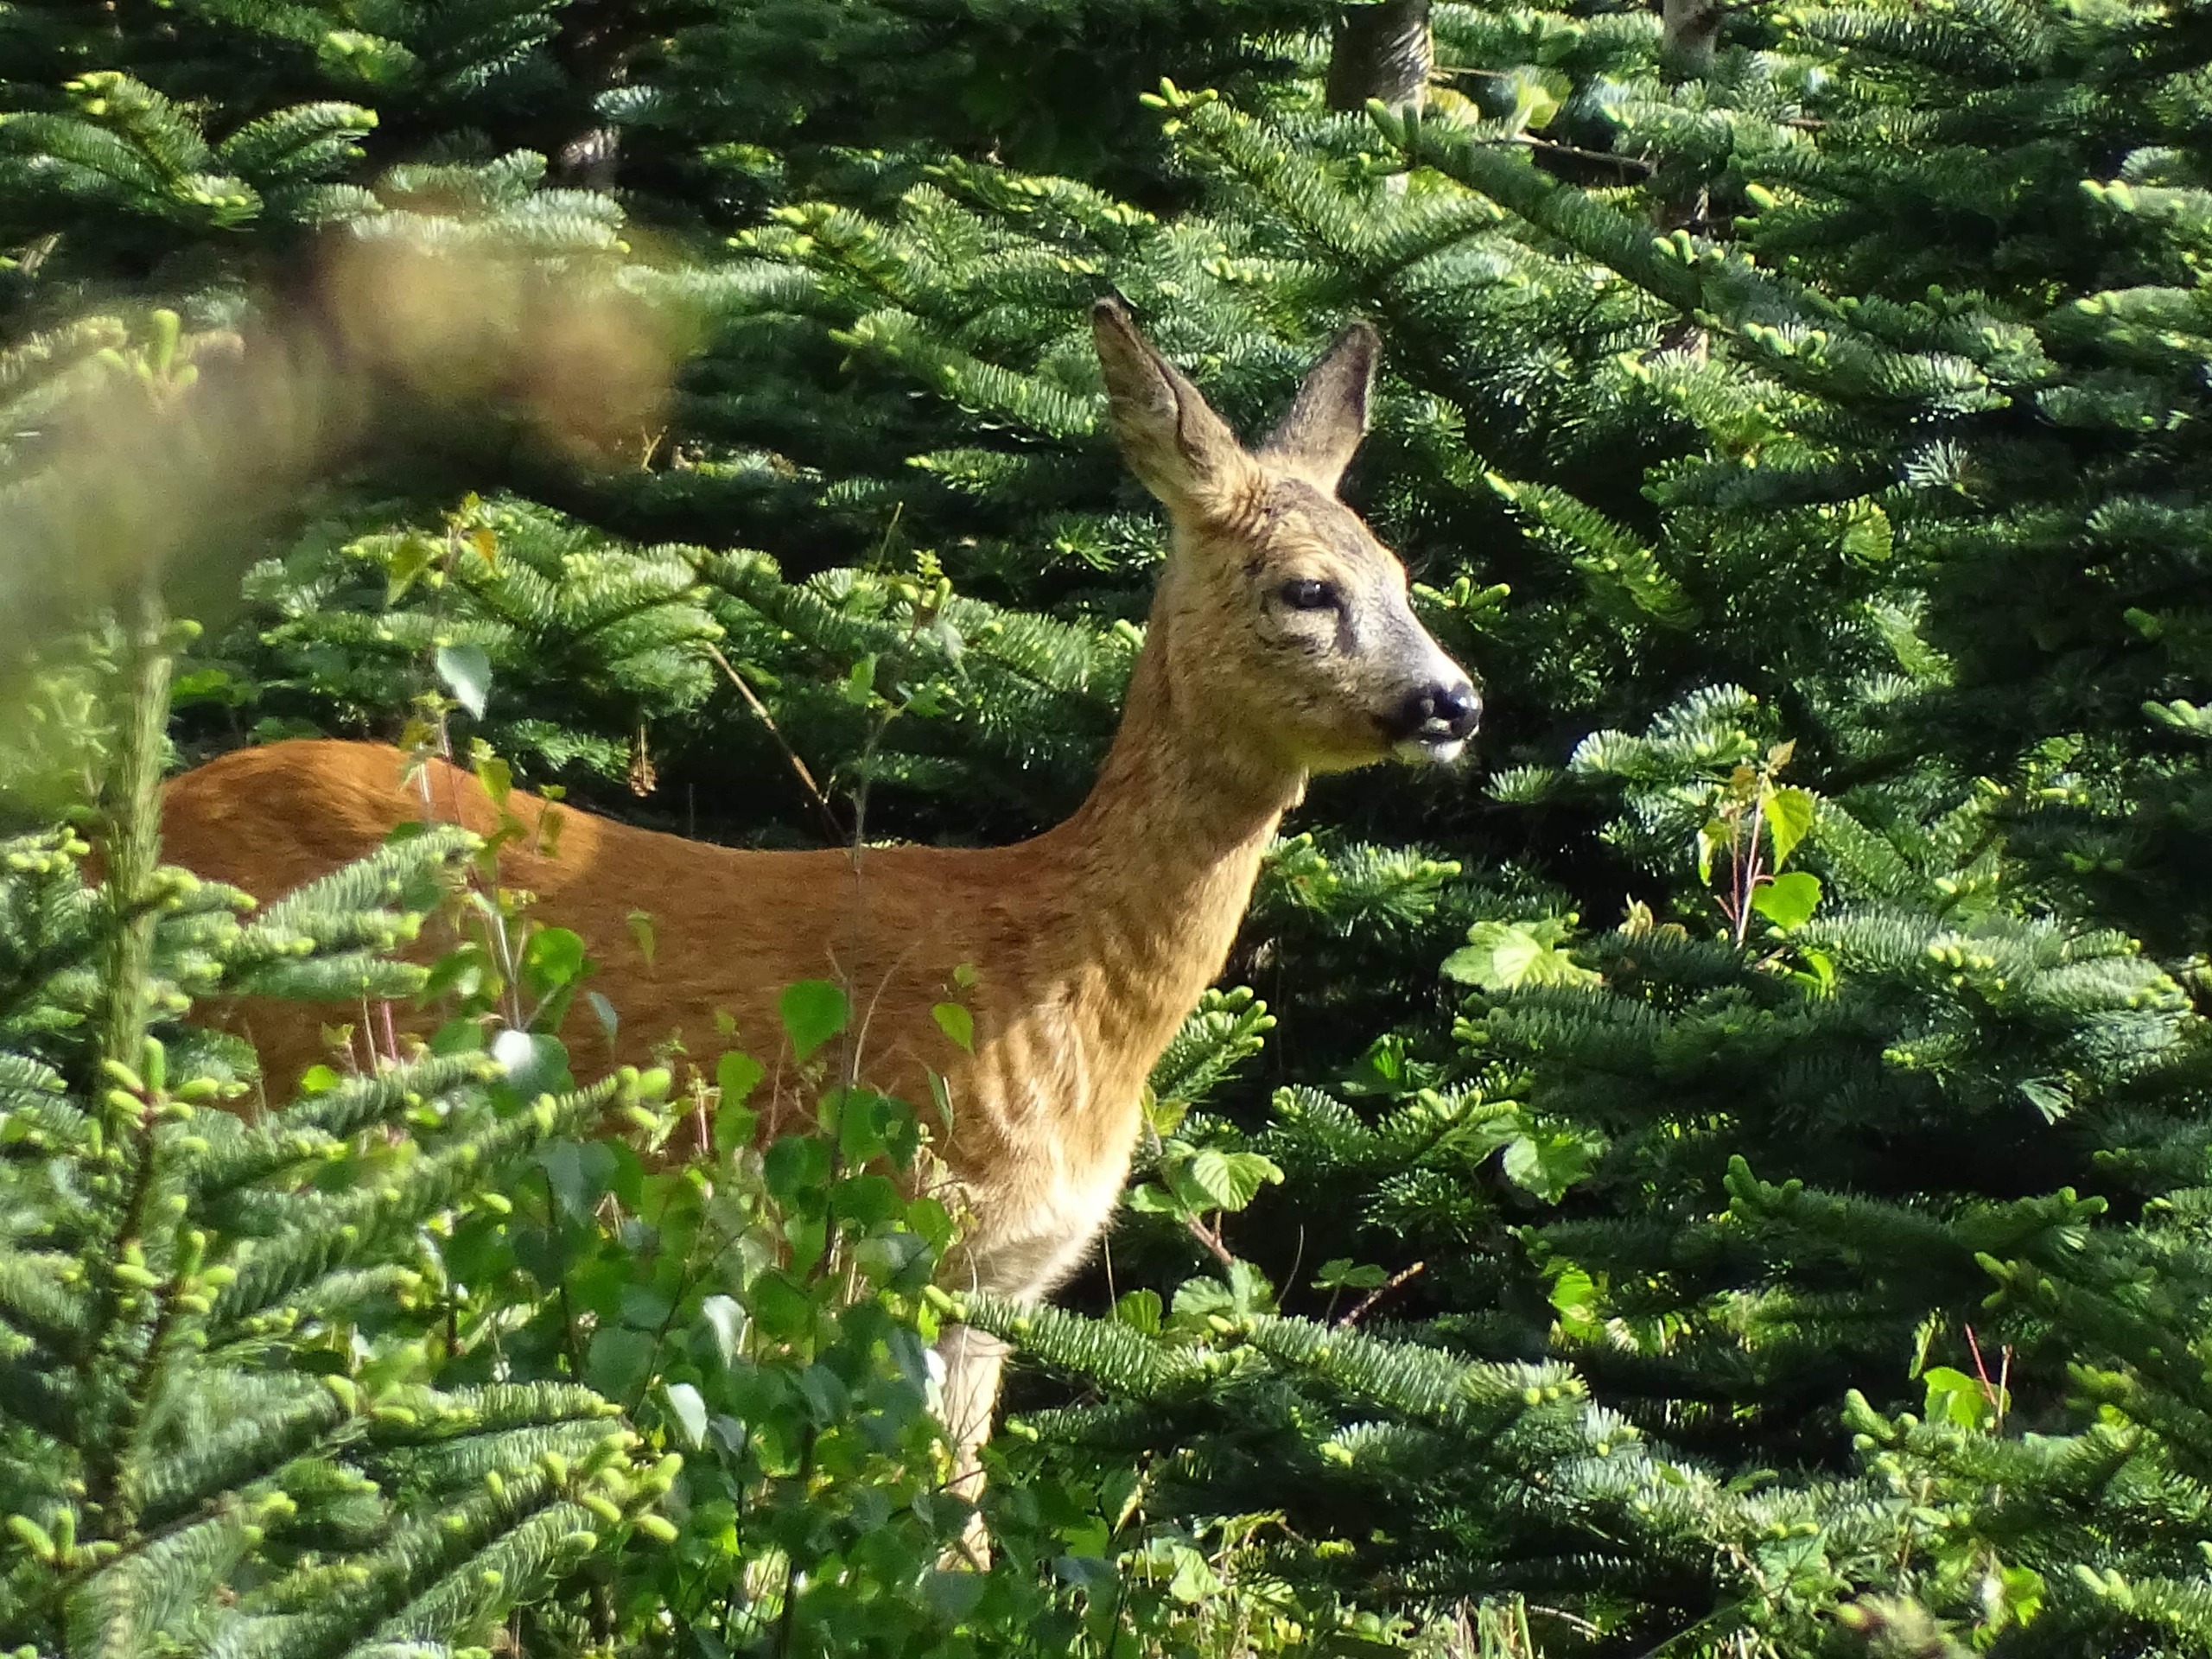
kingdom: Animalia
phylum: Chordata
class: Mammalia
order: Artiodactyla
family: Cervidae
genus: Capreolus
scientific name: Capreolus capreolus
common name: Rådyr
